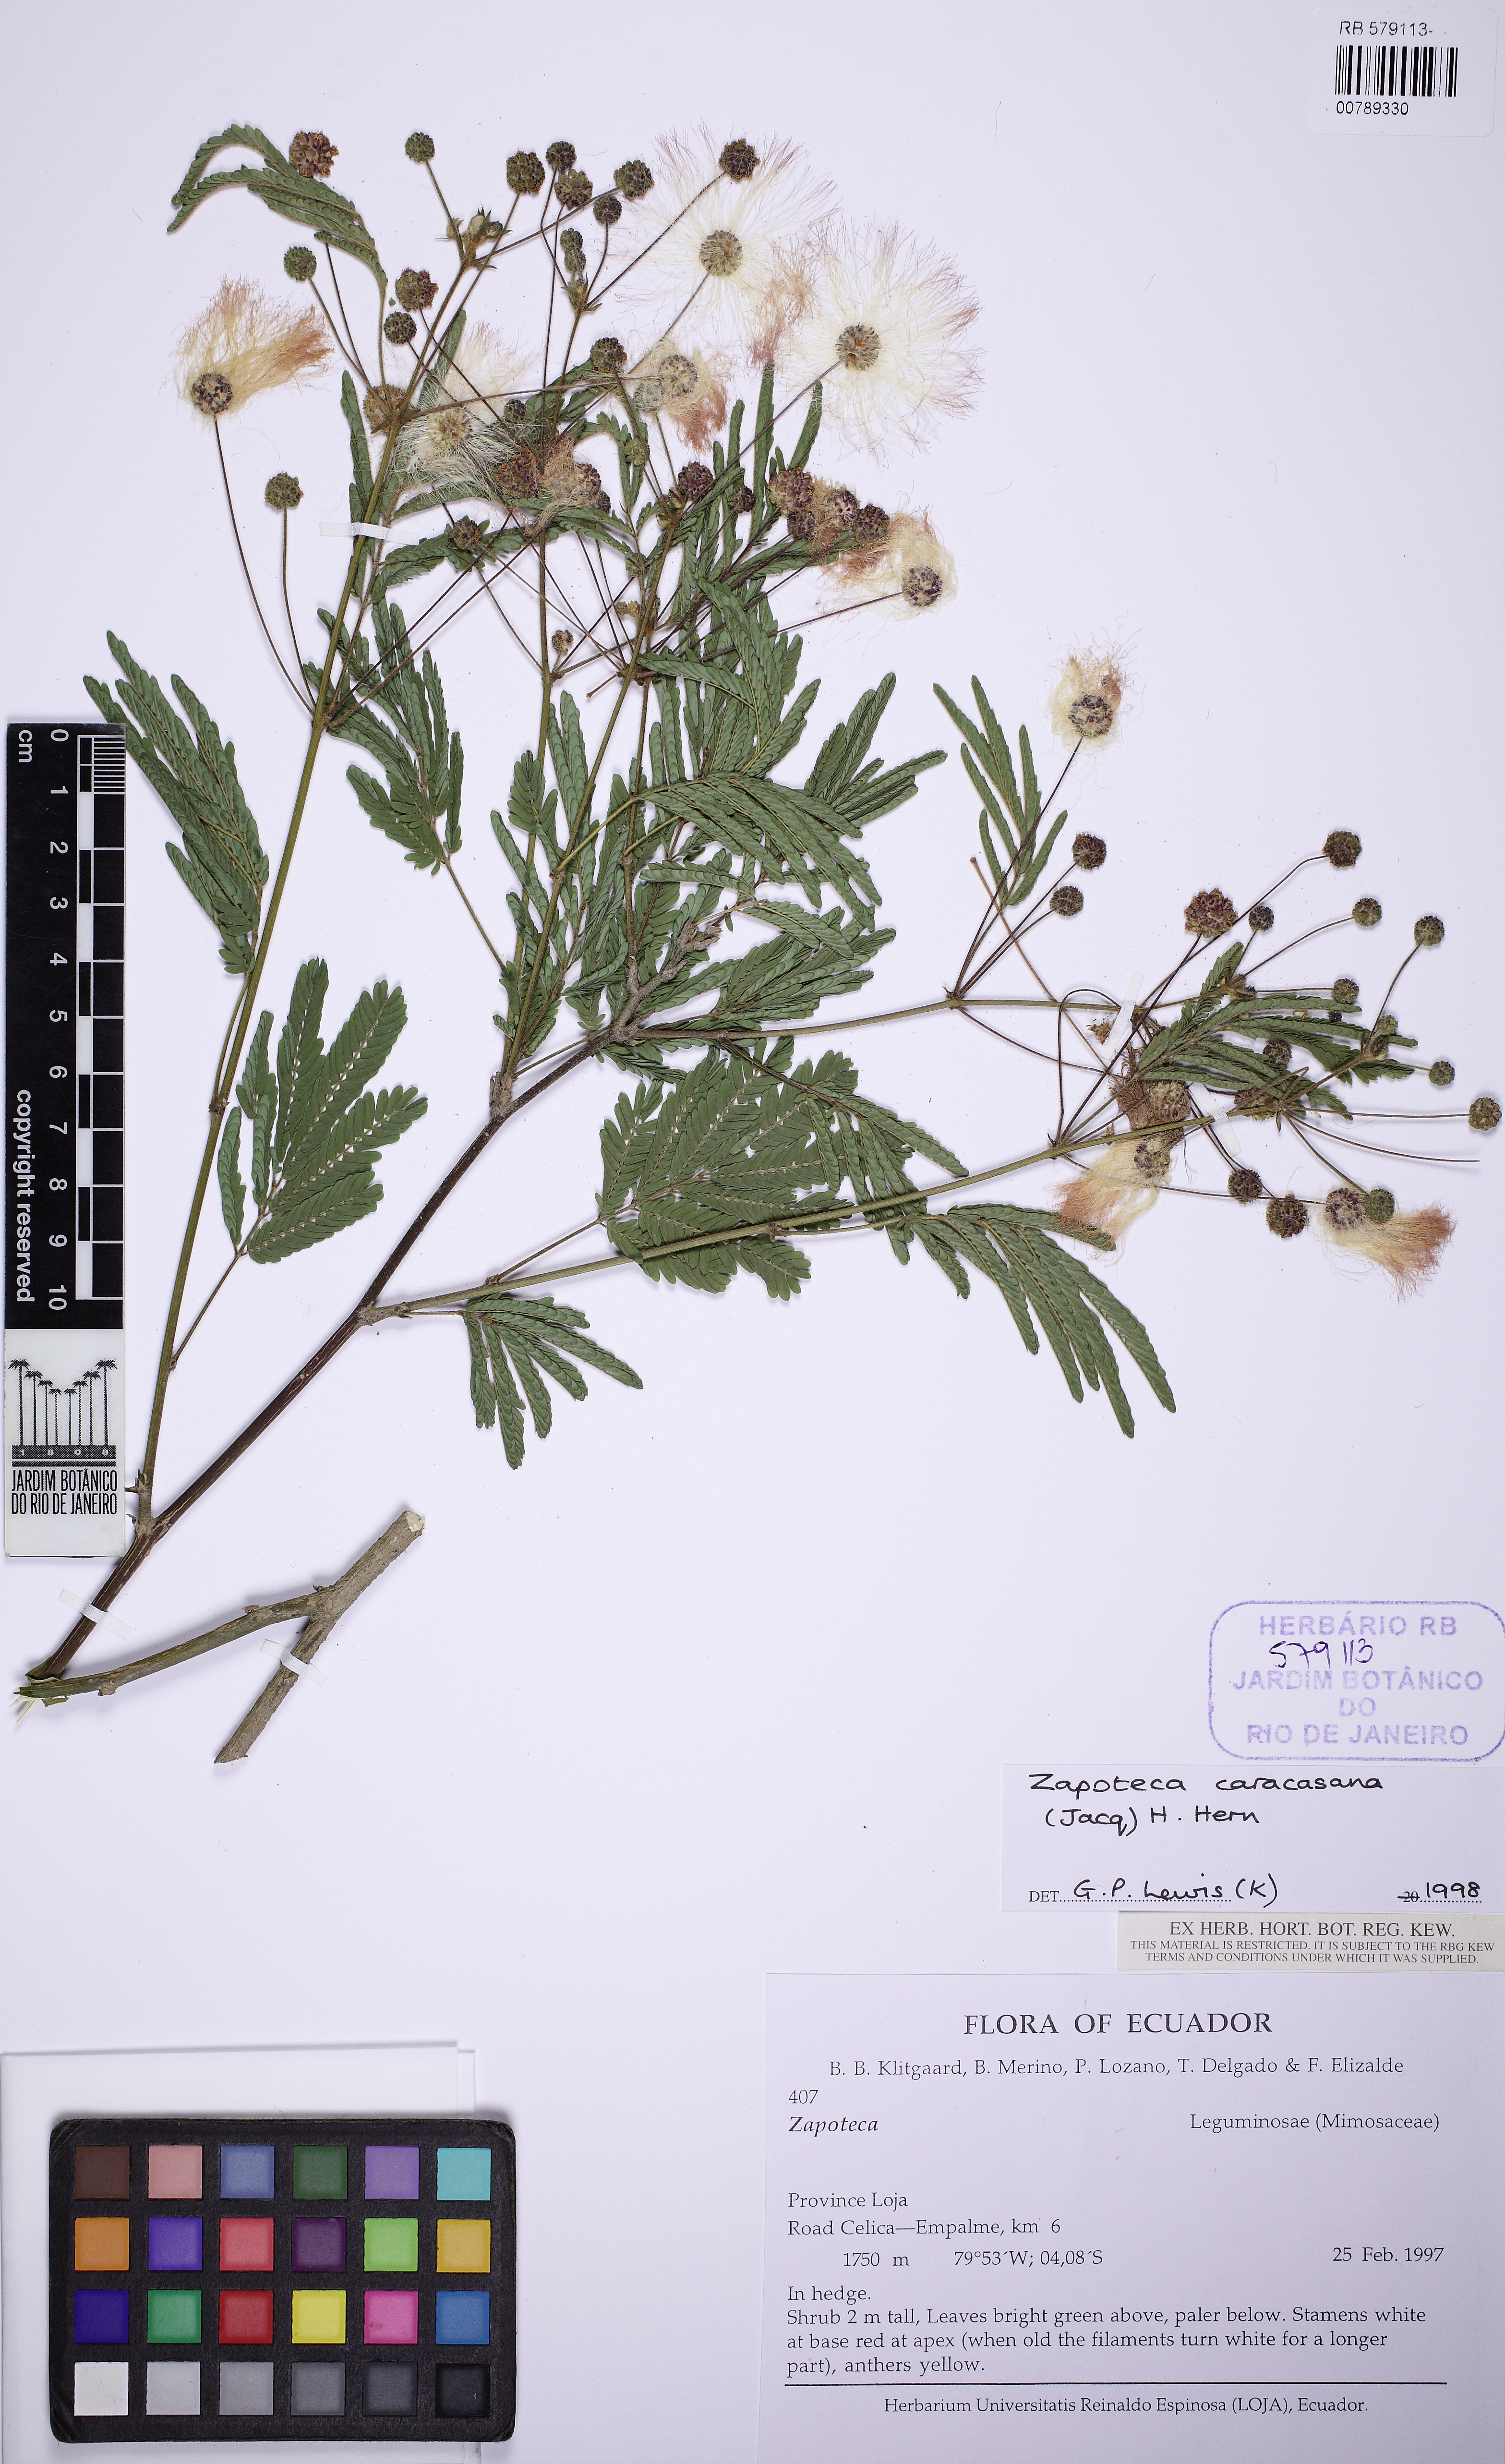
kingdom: Plantae
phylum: Tracheophyta
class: Magnoliopsida
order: Fabales
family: Fabaceae
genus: Zapoteca
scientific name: Zapoteca caracasana
